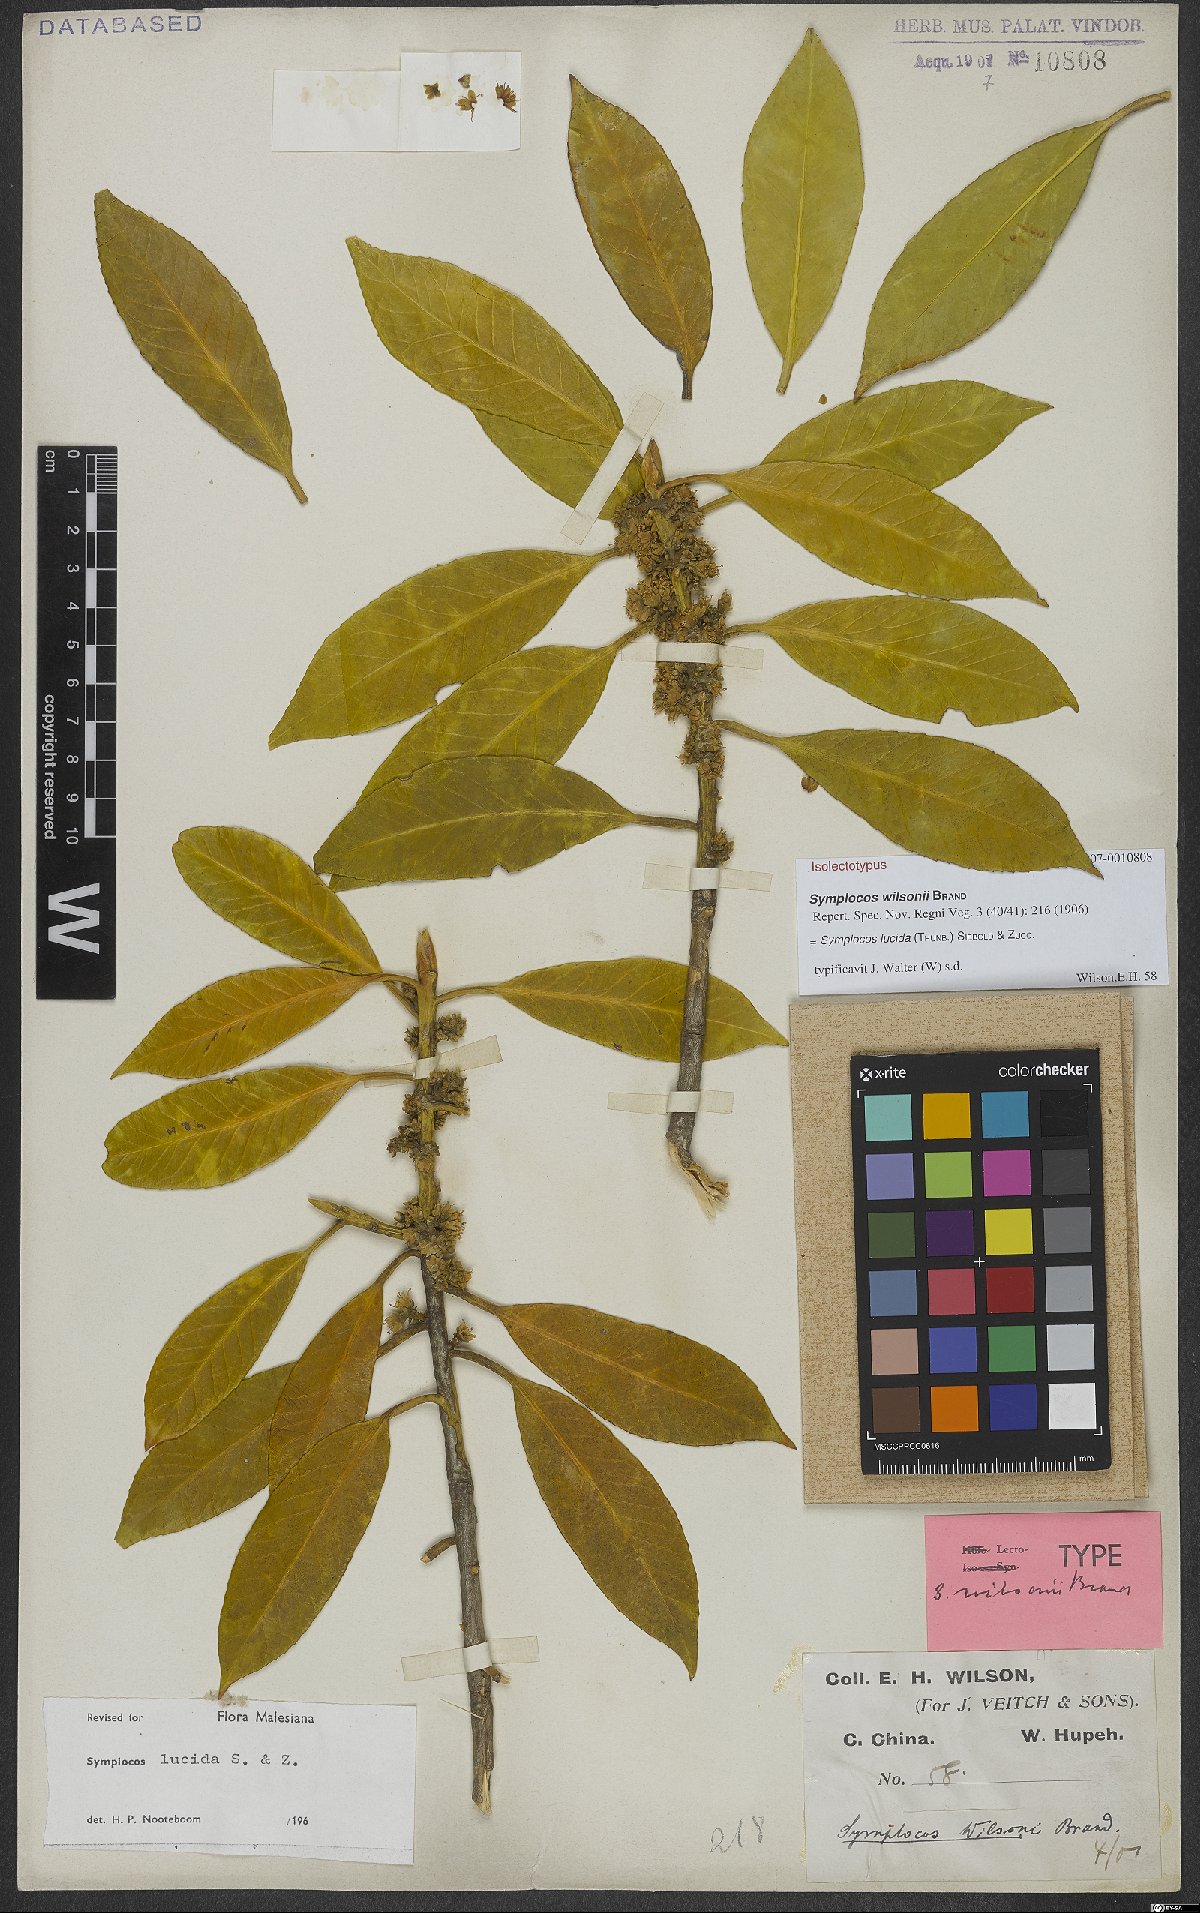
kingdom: Plantae
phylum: Tracheophyta
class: Magnoliopsida
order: Ericales
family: Symplocaceae
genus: Symplocos
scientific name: Symplocos nakaharae
